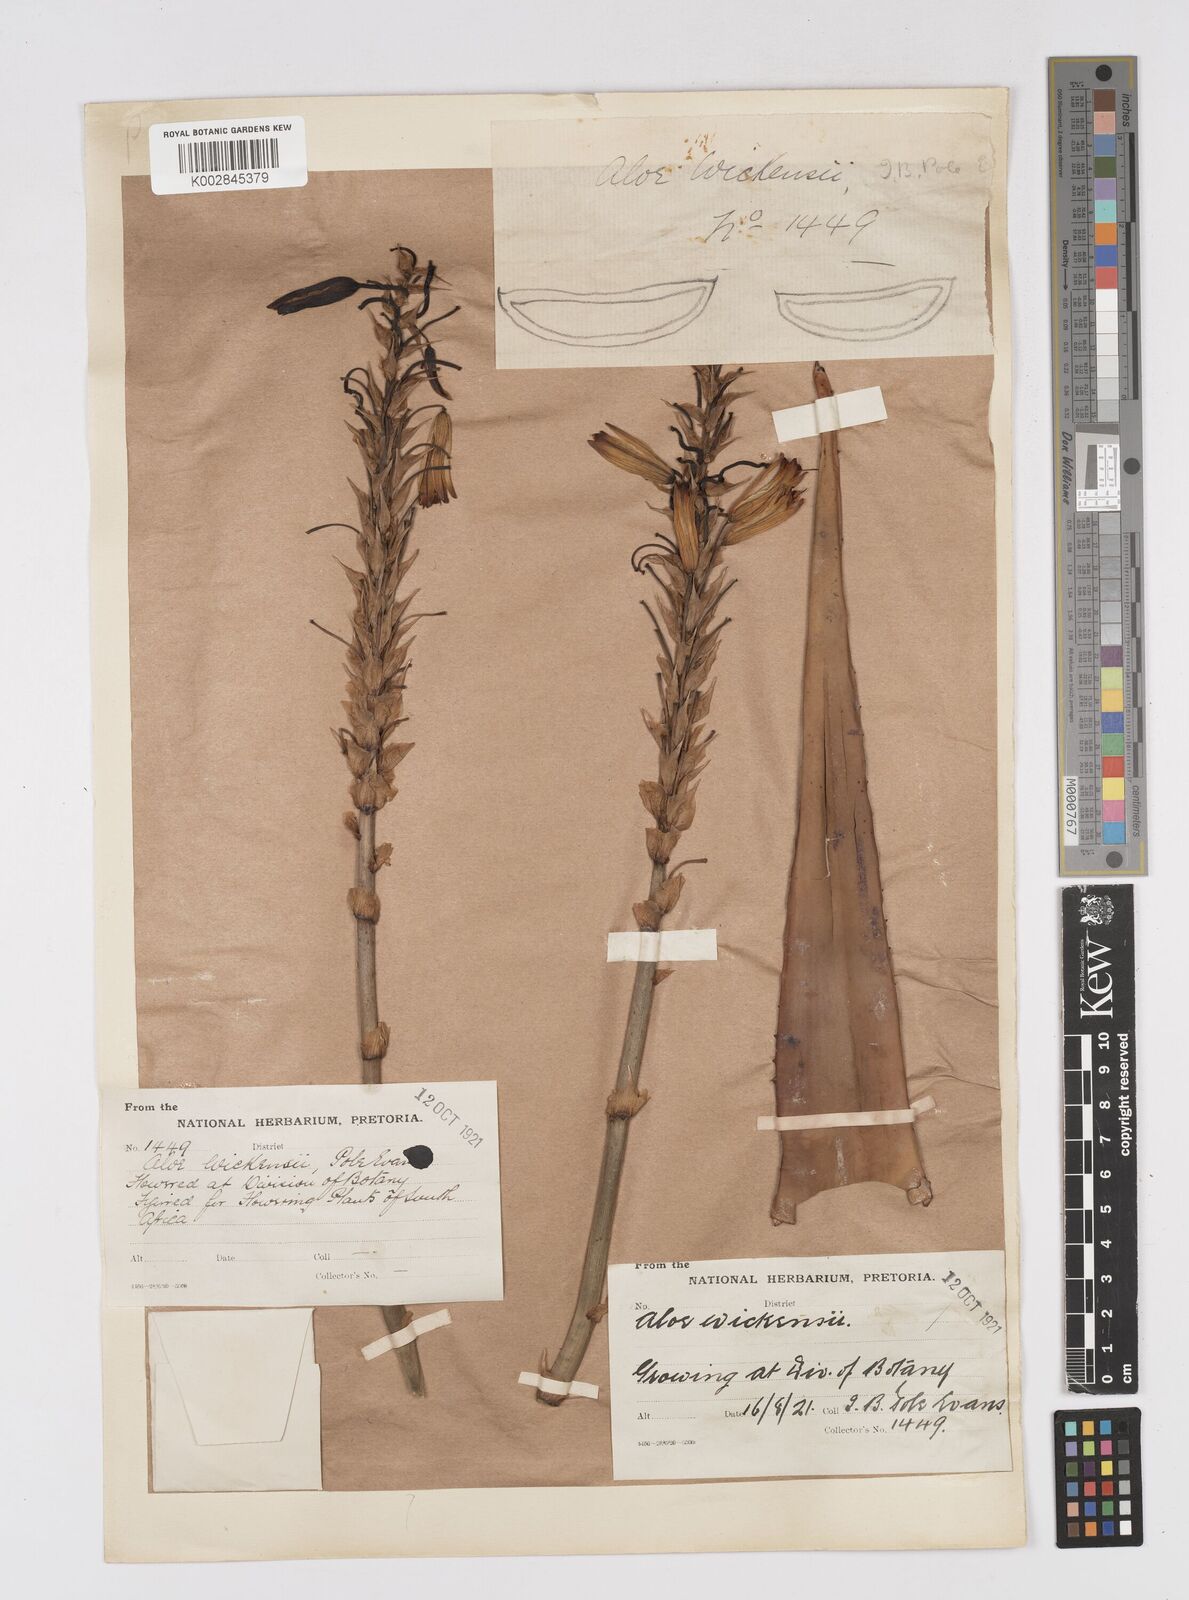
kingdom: Plantae
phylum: Tracheophyta
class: Liliopsida
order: Asparagales
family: Asphodelaceae
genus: Aloe
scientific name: Aloe wickensii
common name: Wickens' aloe
